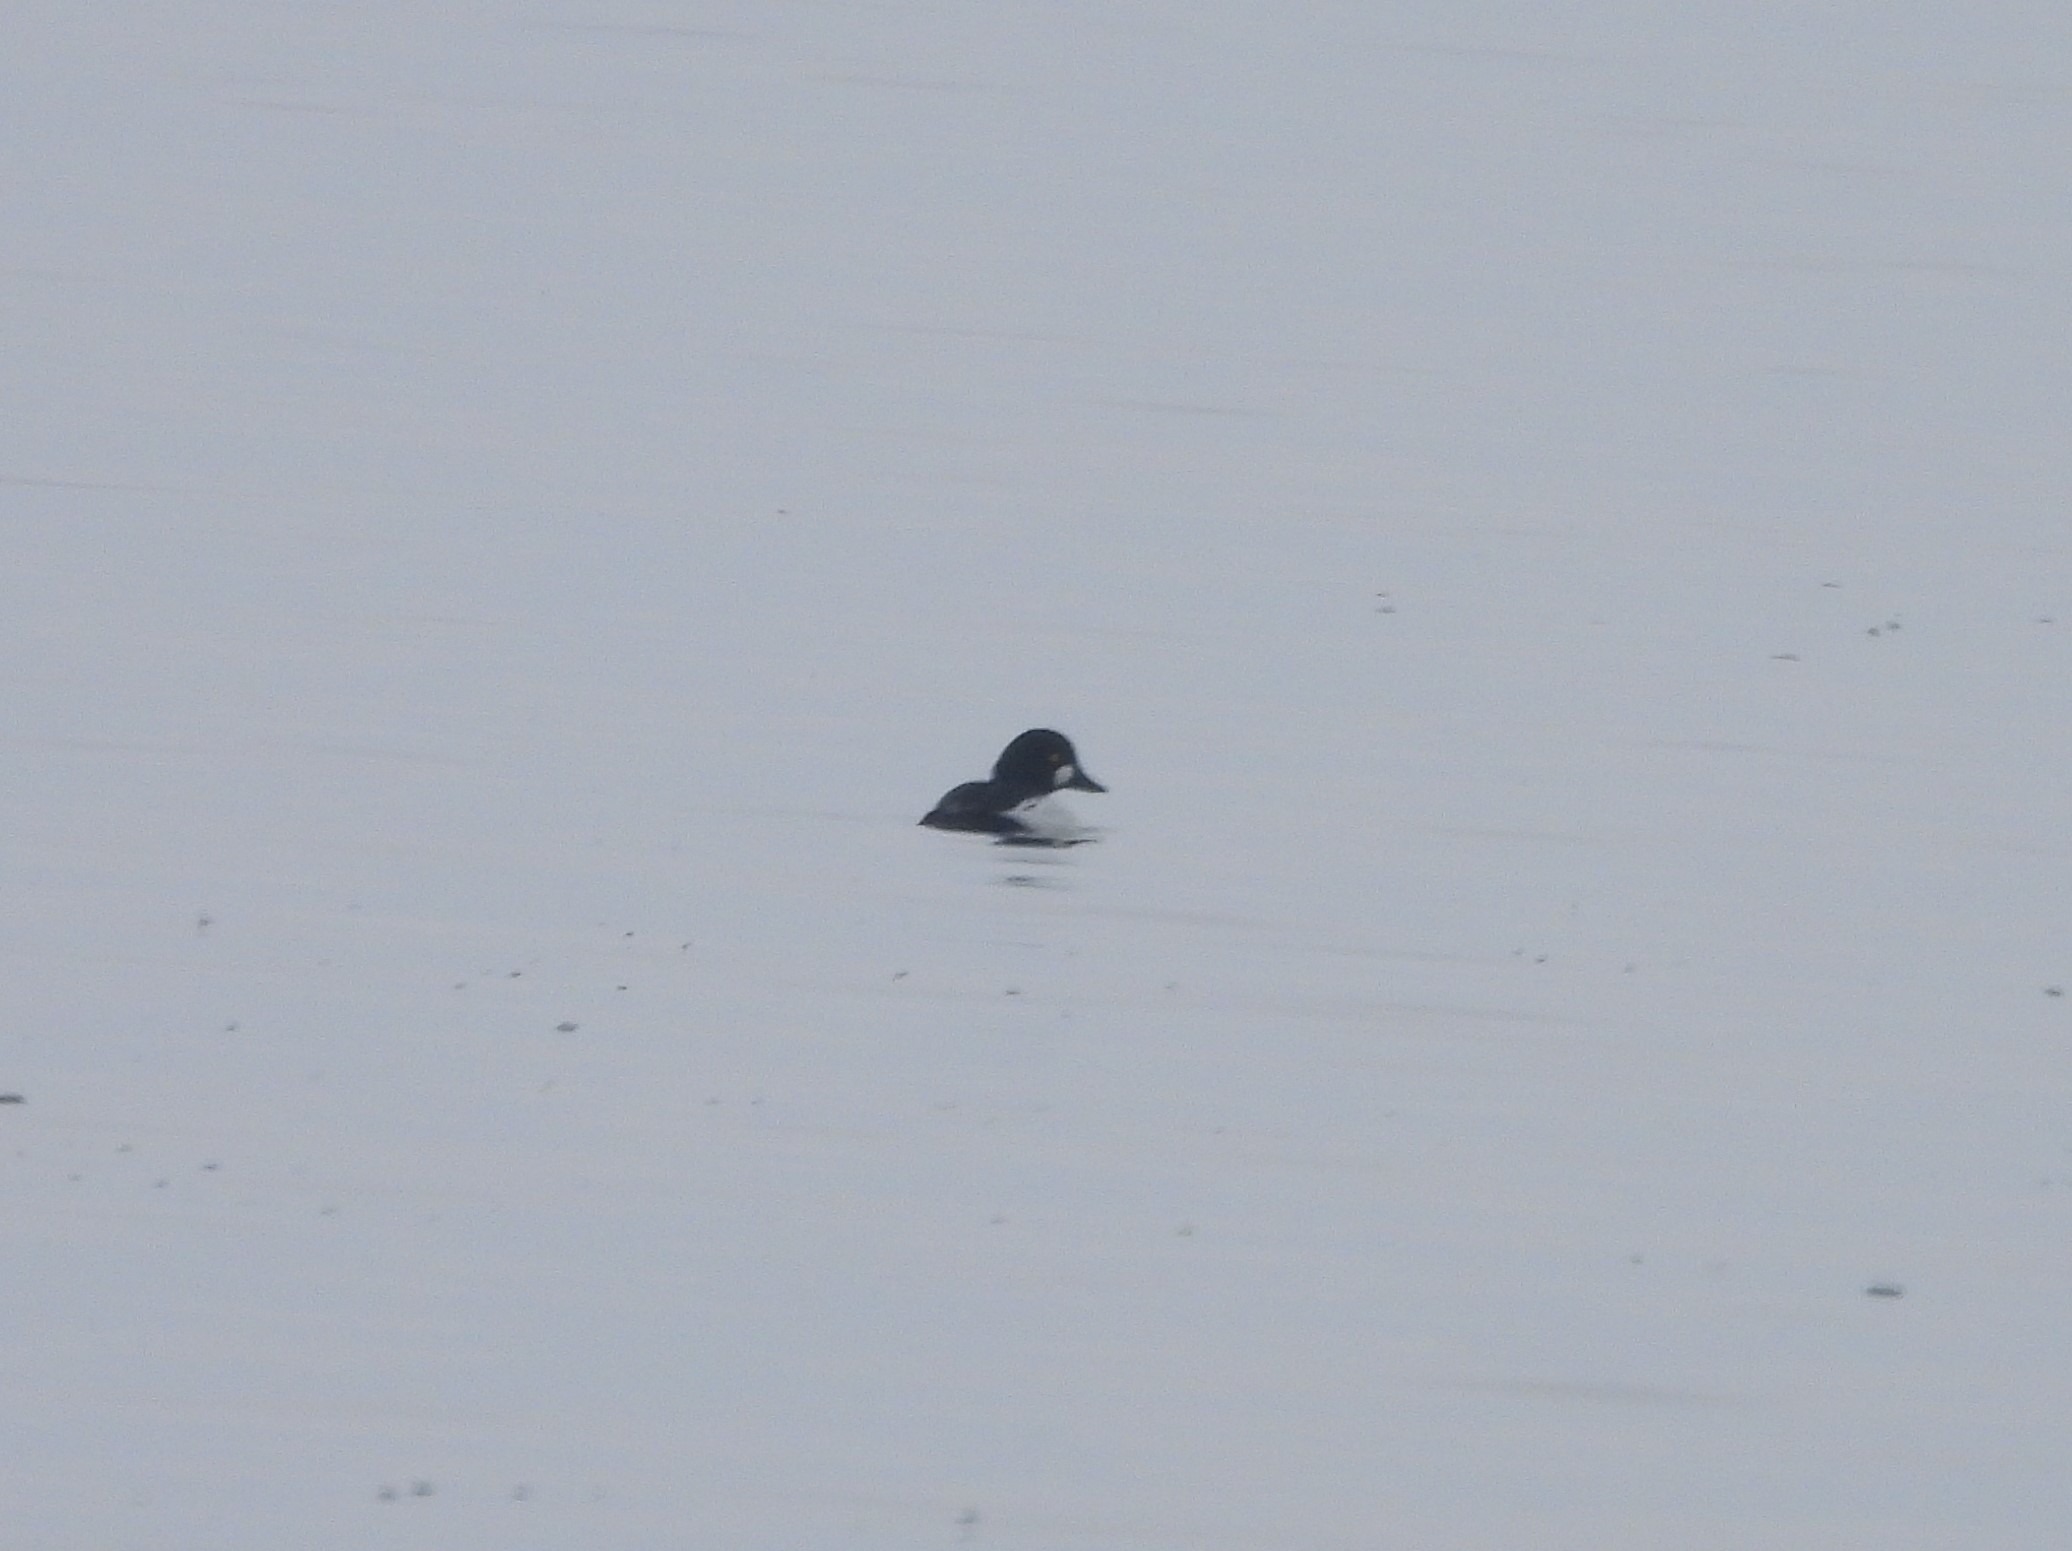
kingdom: Animalia
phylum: Chordata
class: Aves
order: Anseriformes
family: Anatidae
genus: Bucephala
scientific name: Bucephala clangula
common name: Hvinand
